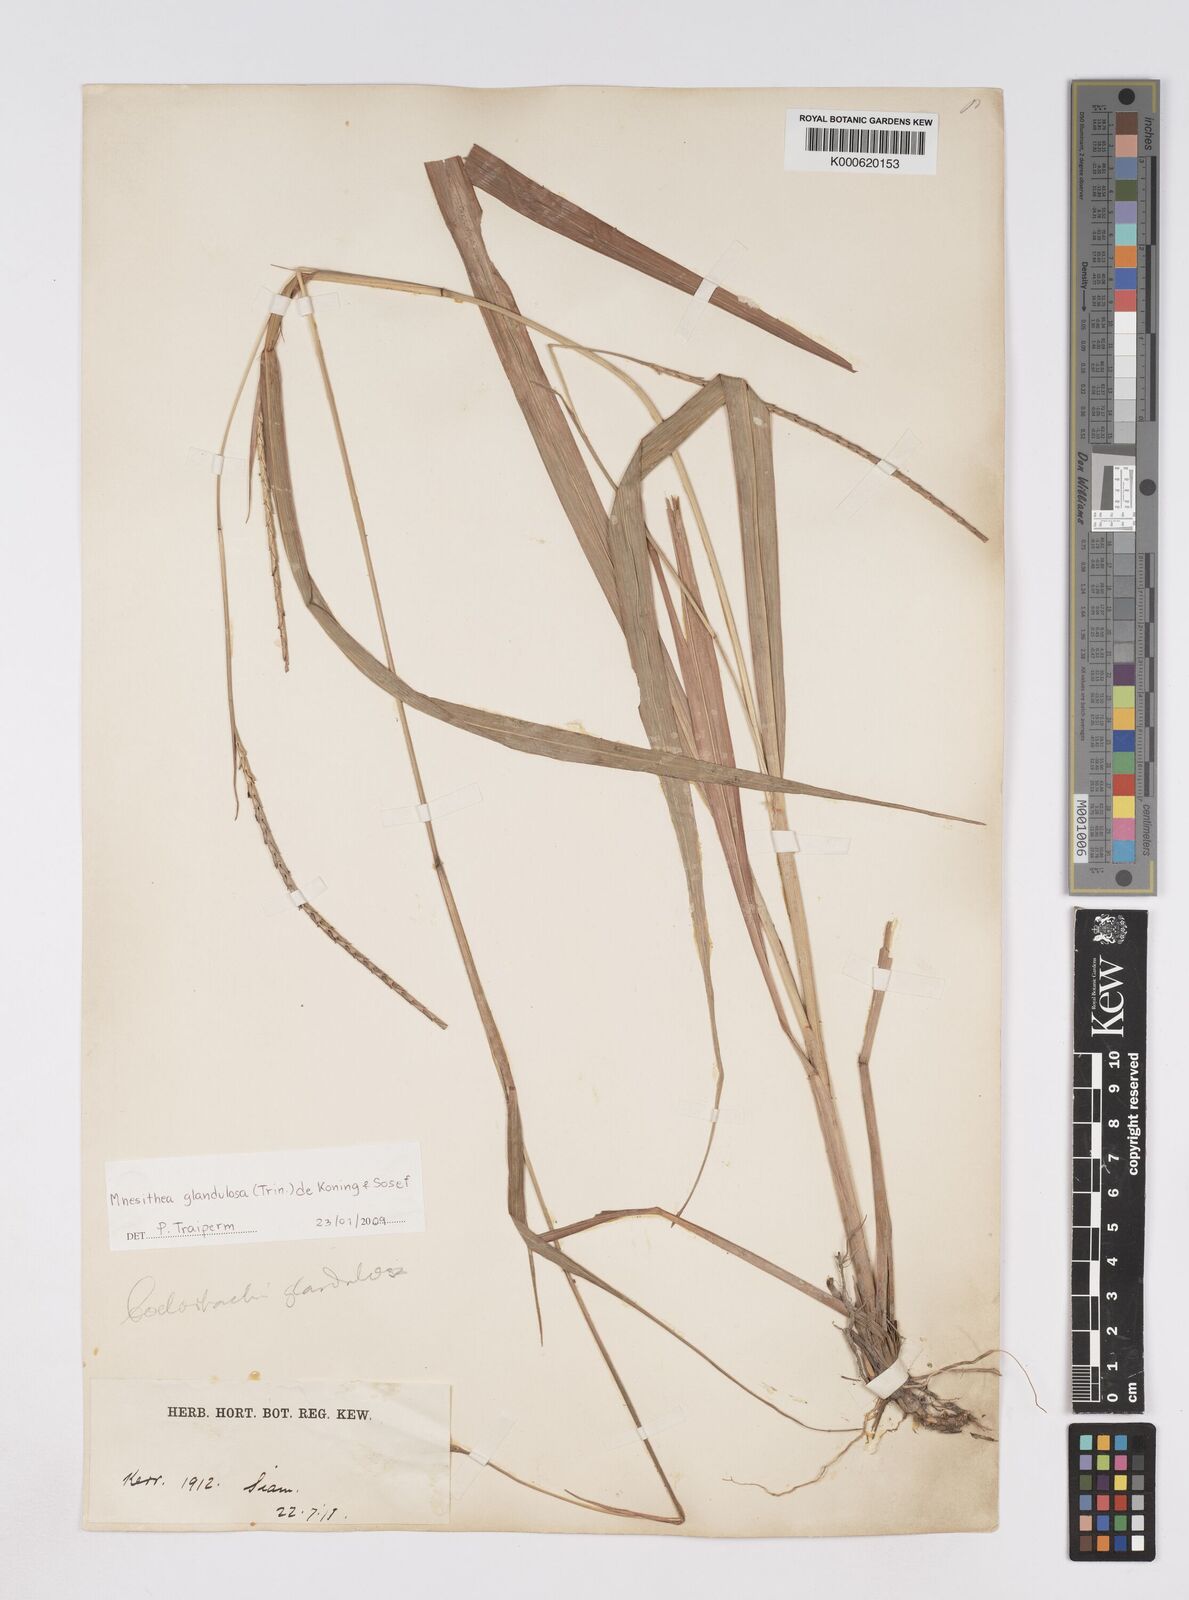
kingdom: Plantae
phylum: Tracheophyta
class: Liliopsida
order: Poales
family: Poaceae
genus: Rottboellia
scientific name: Rottboellia glandulosa
